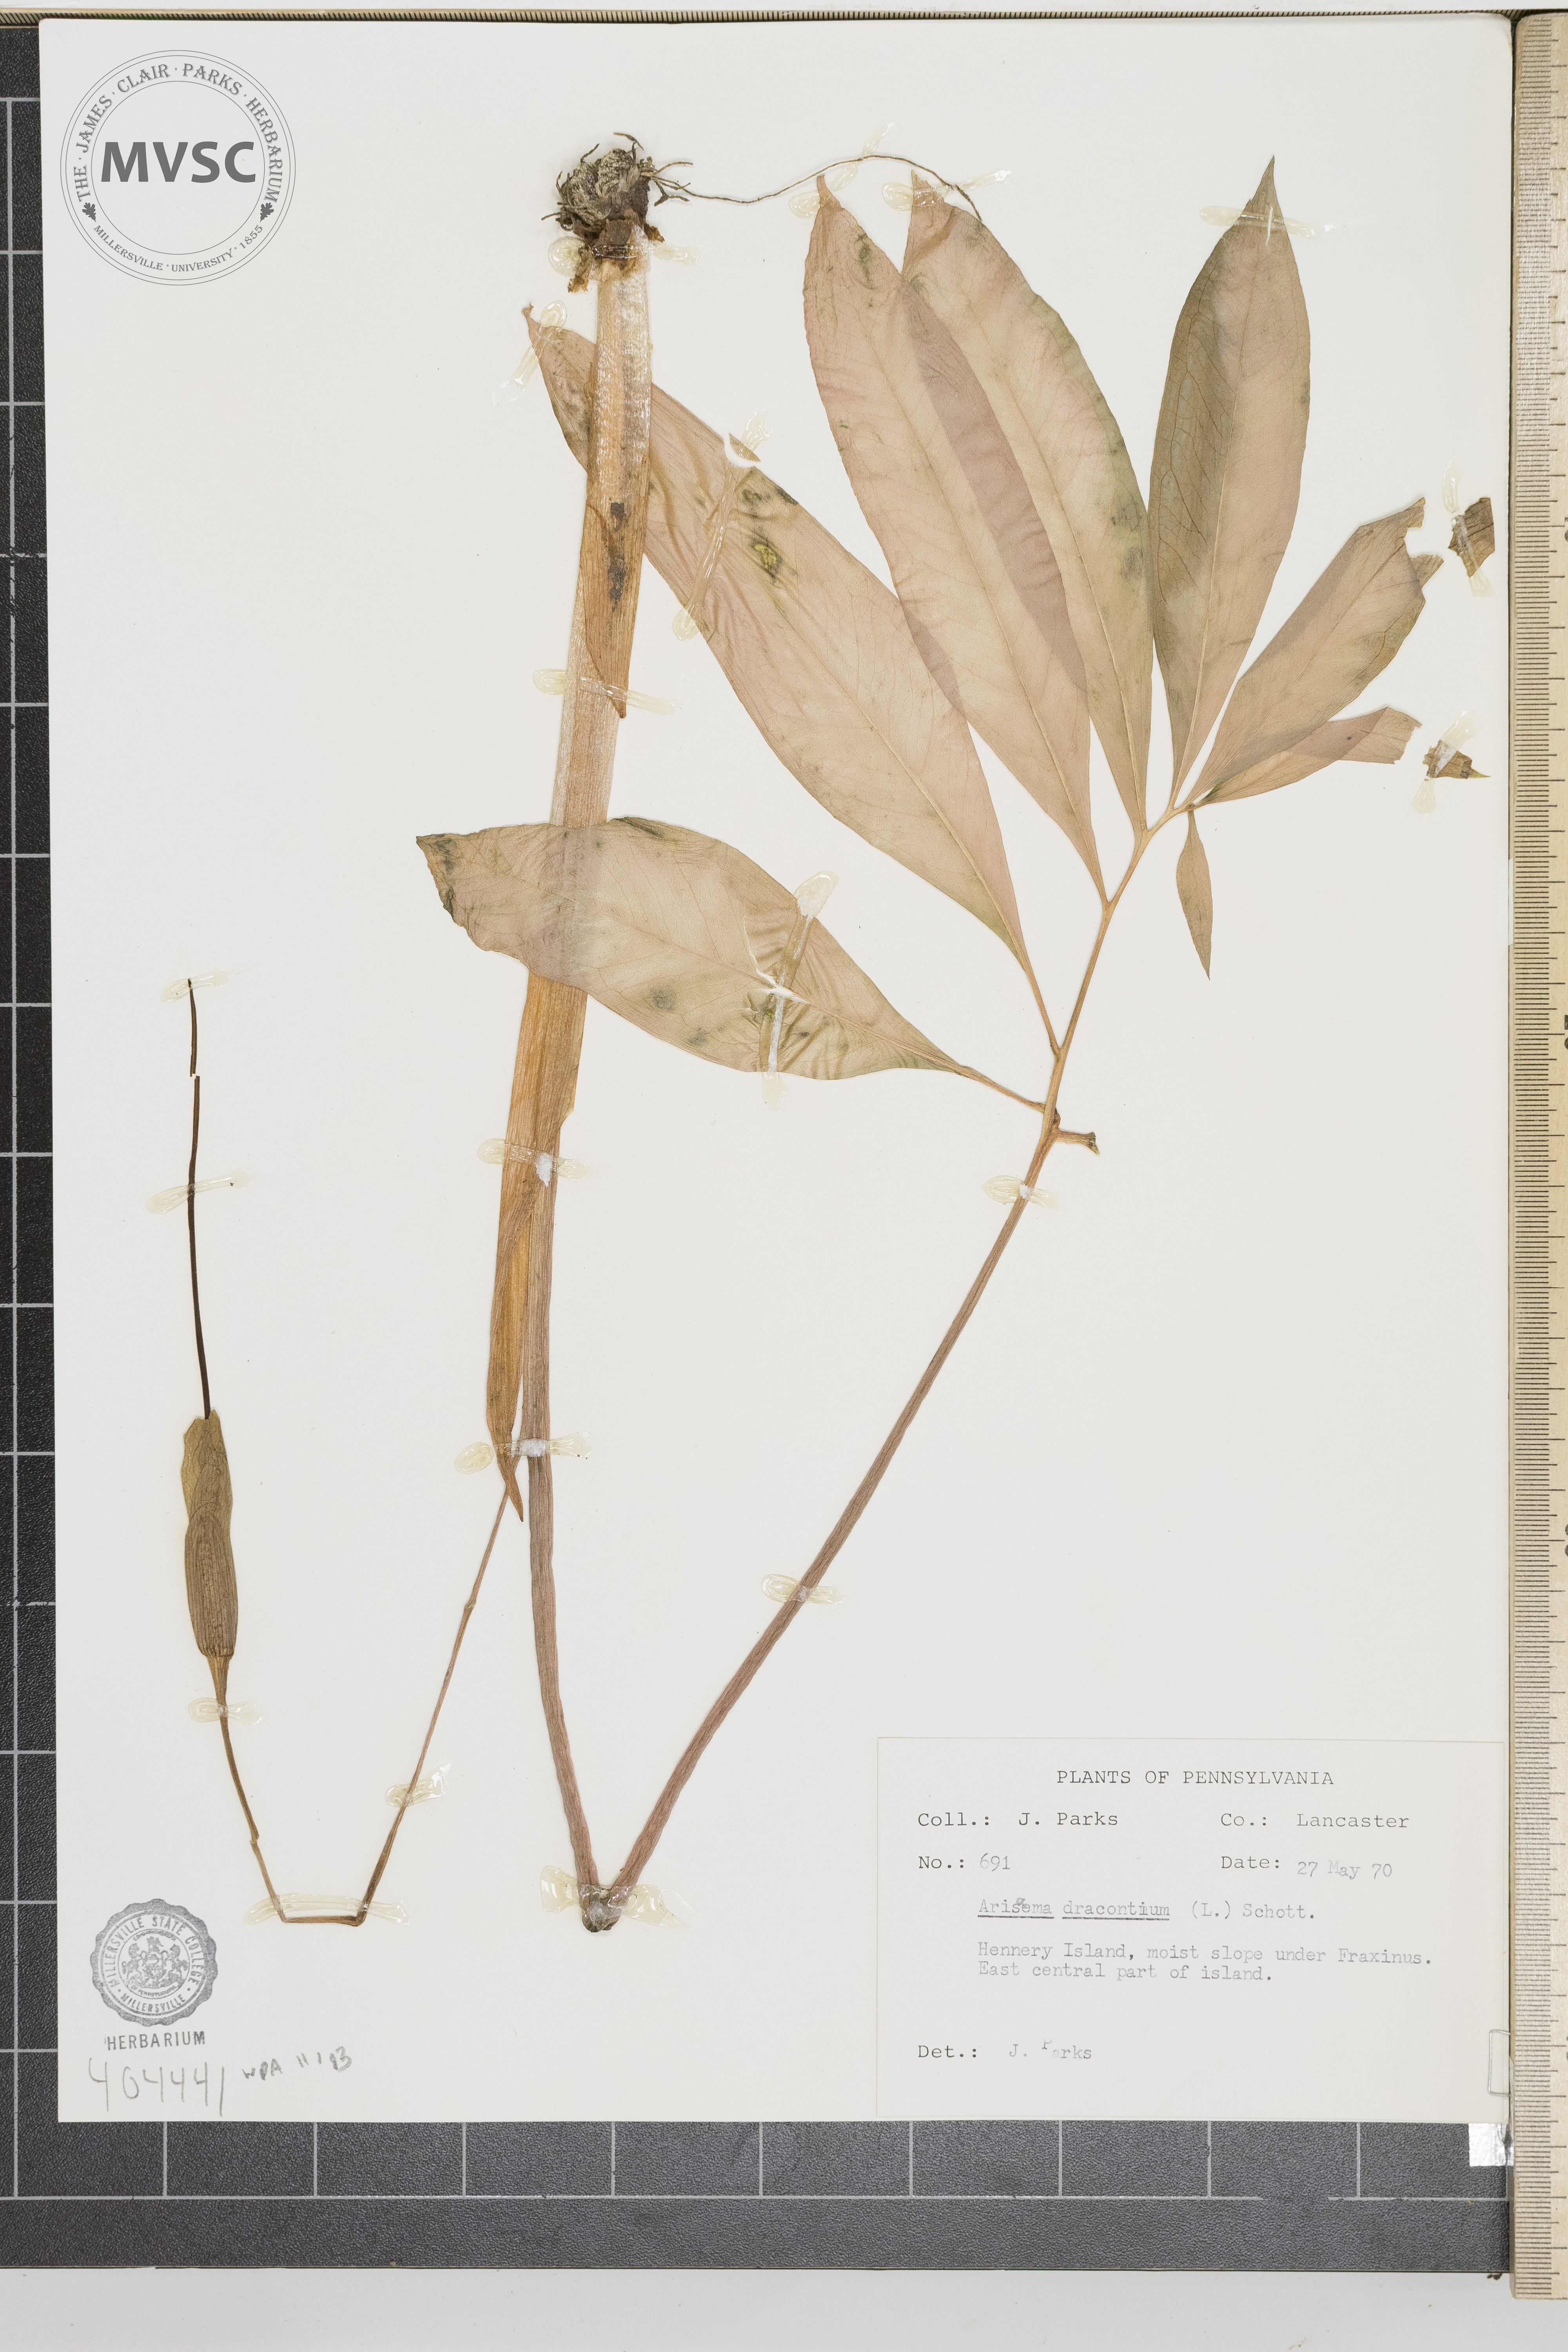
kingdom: Plantae
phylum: Tracheophyta
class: Liliopsida
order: Alismatales
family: Araceae
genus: Arisaema
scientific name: Arisaema dracontium
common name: Dragon-arum
